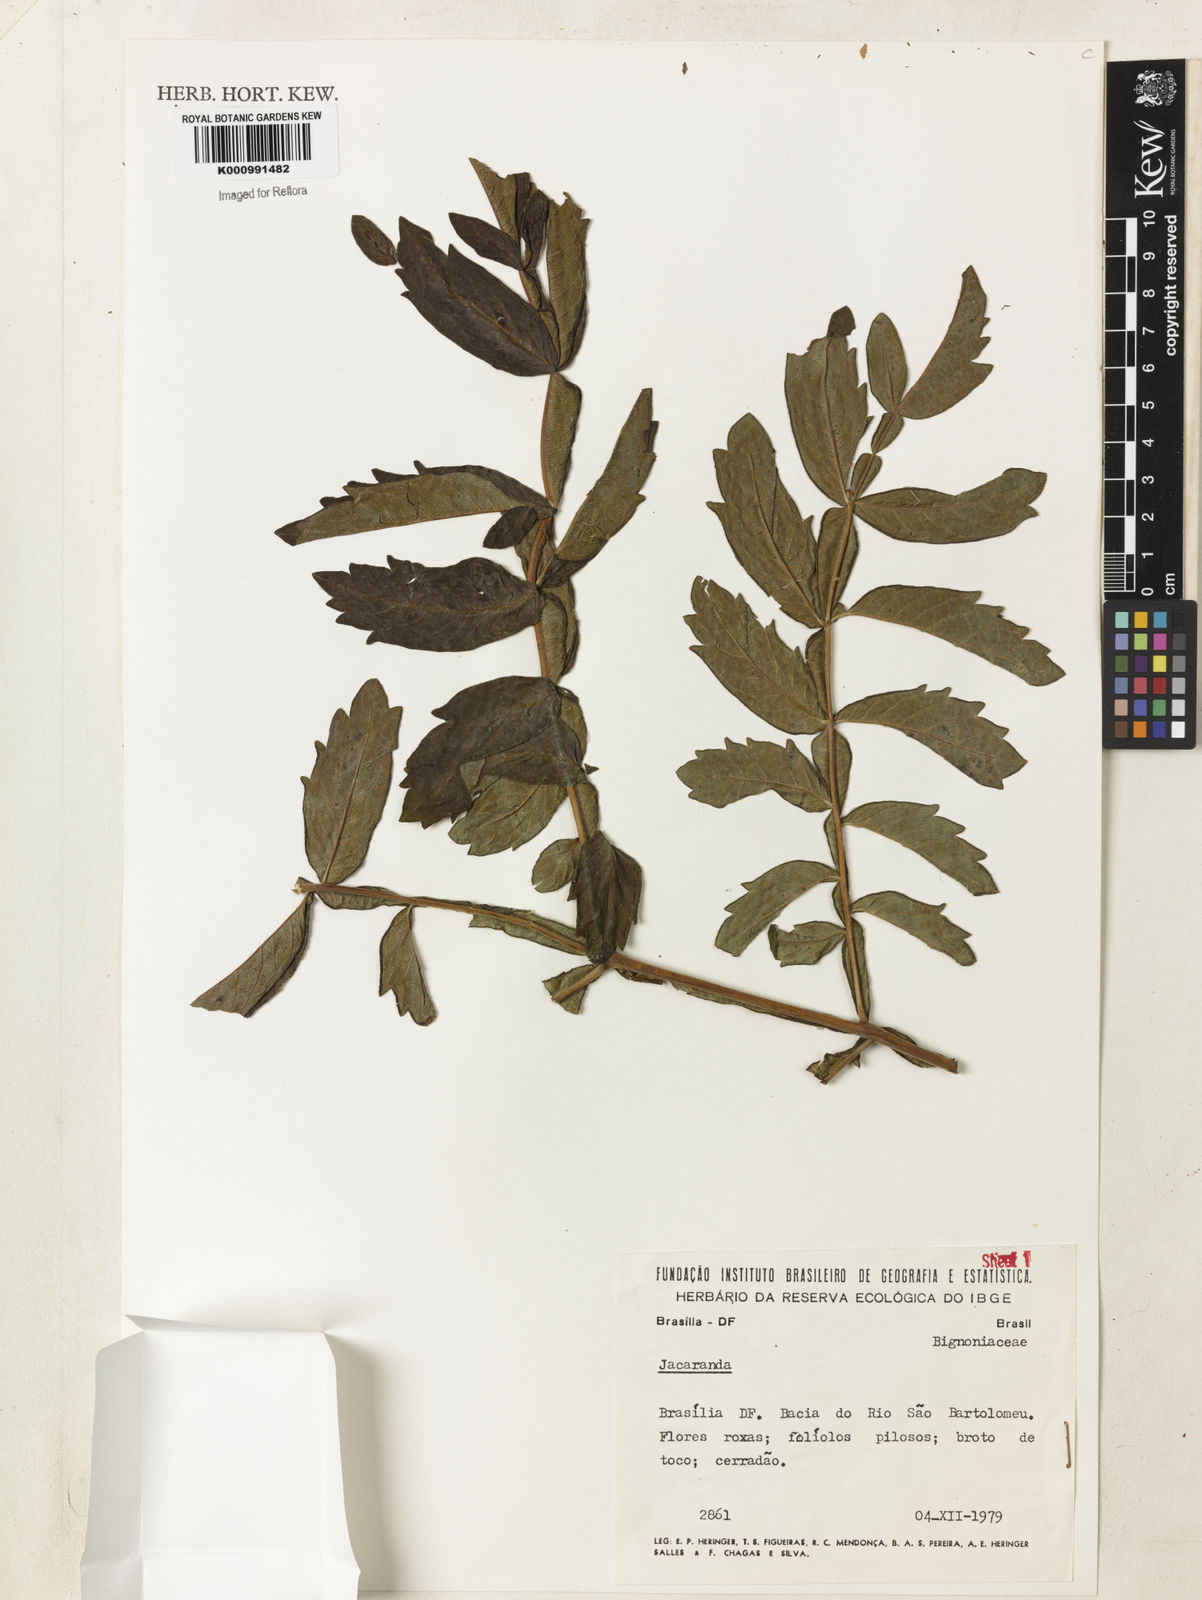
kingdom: Plantae
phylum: Tracheophyta
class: Magnoliopsida
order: Lamiales
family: Bignoniaceae
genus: Jacaranda
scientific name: Jacaranda rufa
